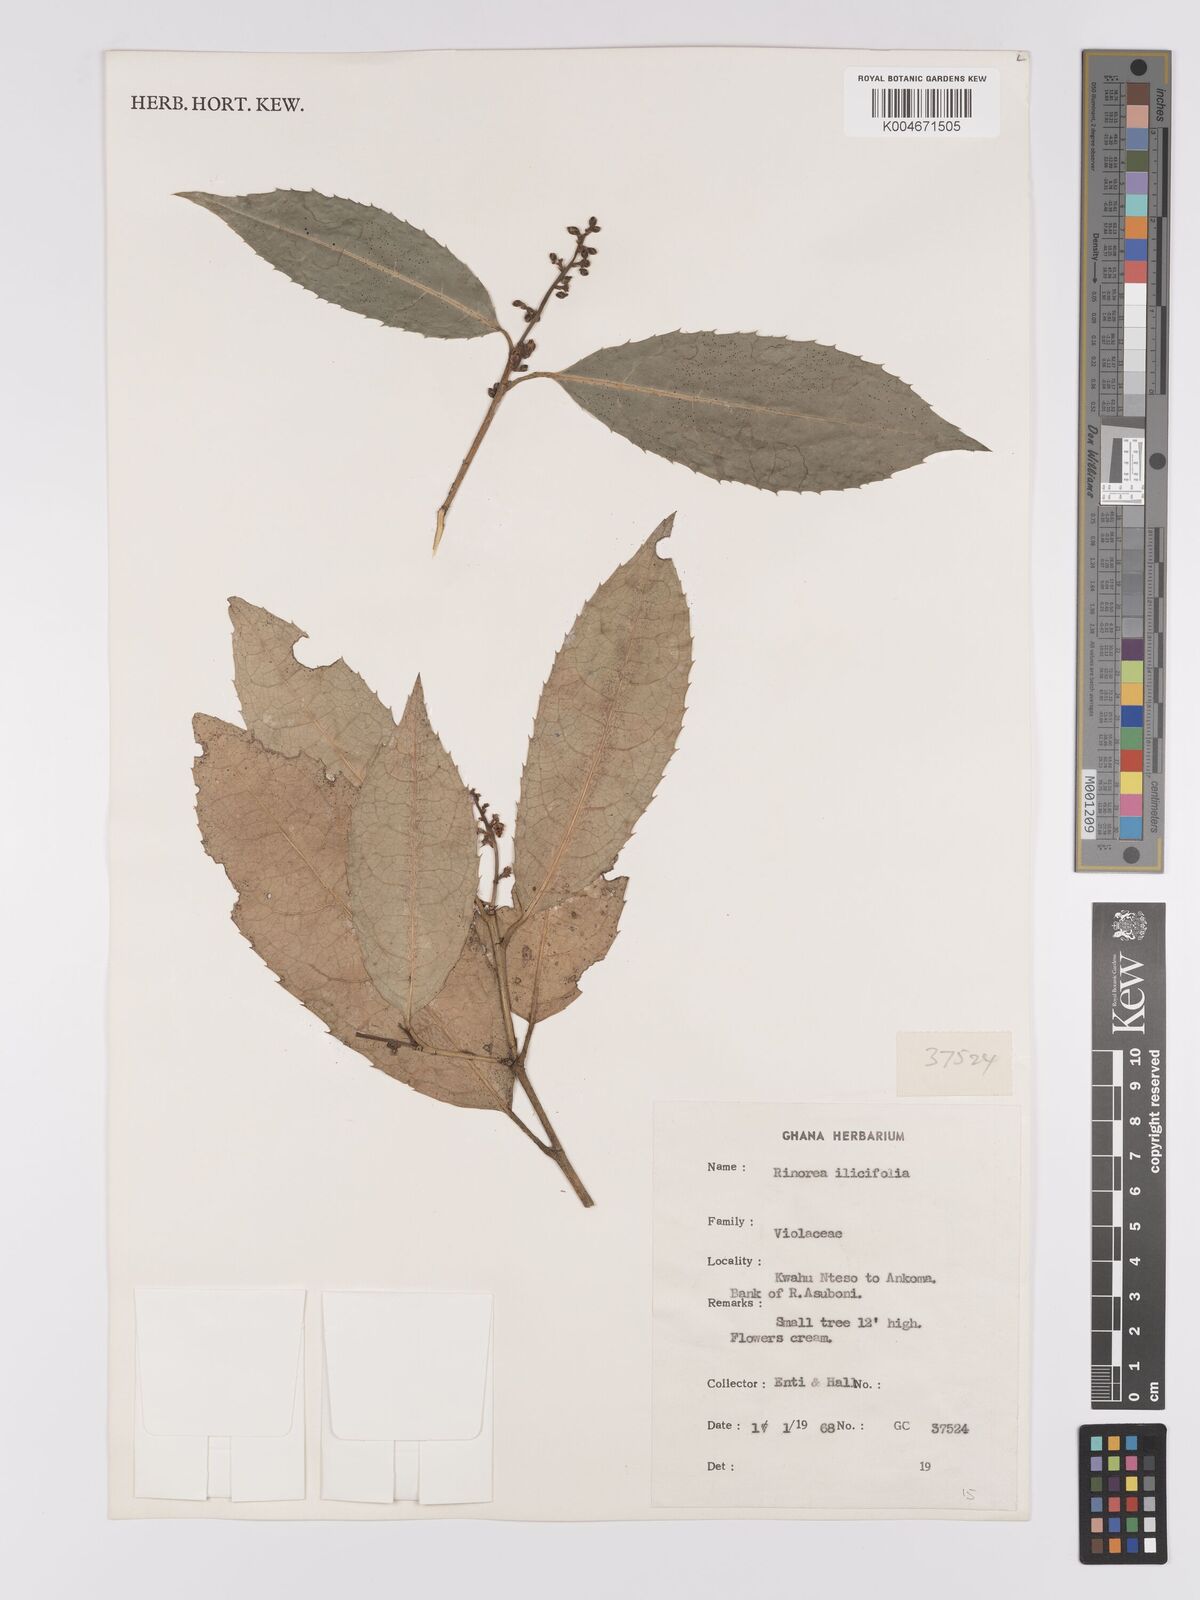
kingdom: Plantae
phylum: Tracheophyta
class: Magnoliopsida
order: Malpighiales
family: Violaceae
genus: Rinorea
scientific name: Rinorea ilicifolia
